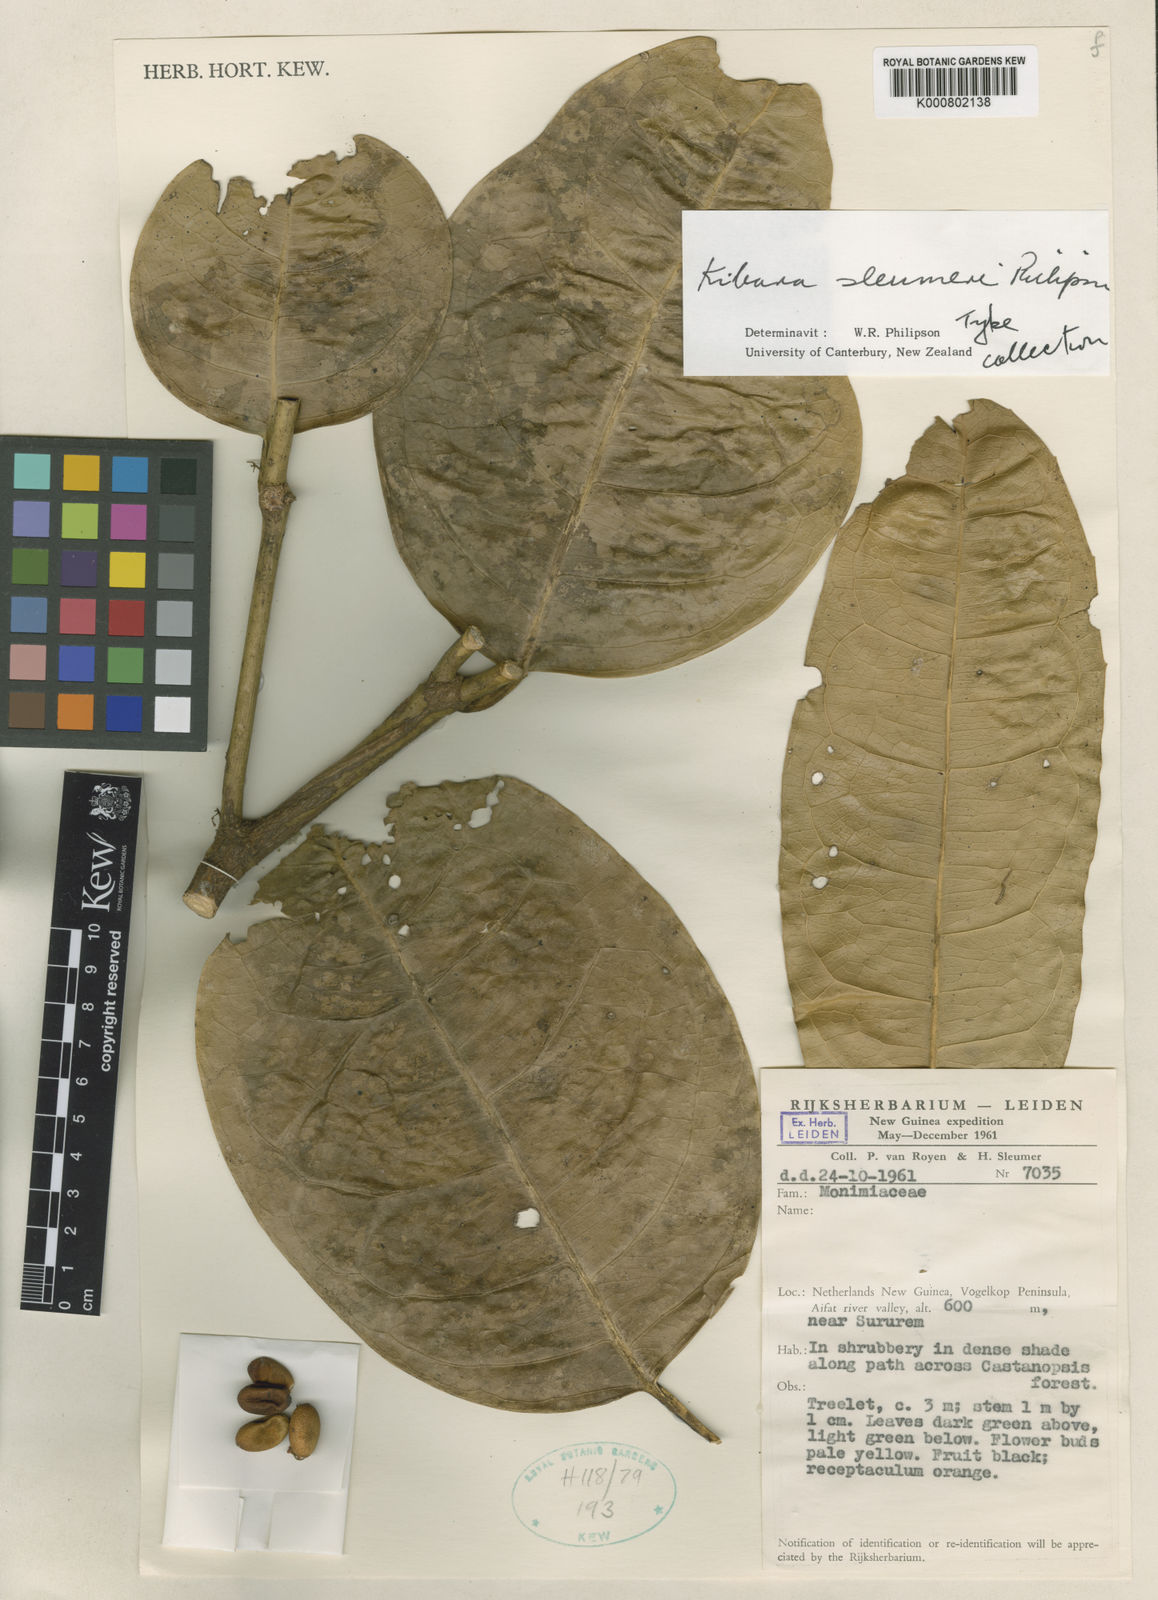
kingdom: Plantae
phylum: Tracheophyta
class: Magnoliopsida
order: Laurales
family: Monimiaceae
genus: Kibara
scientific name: Kibara sleumeri
